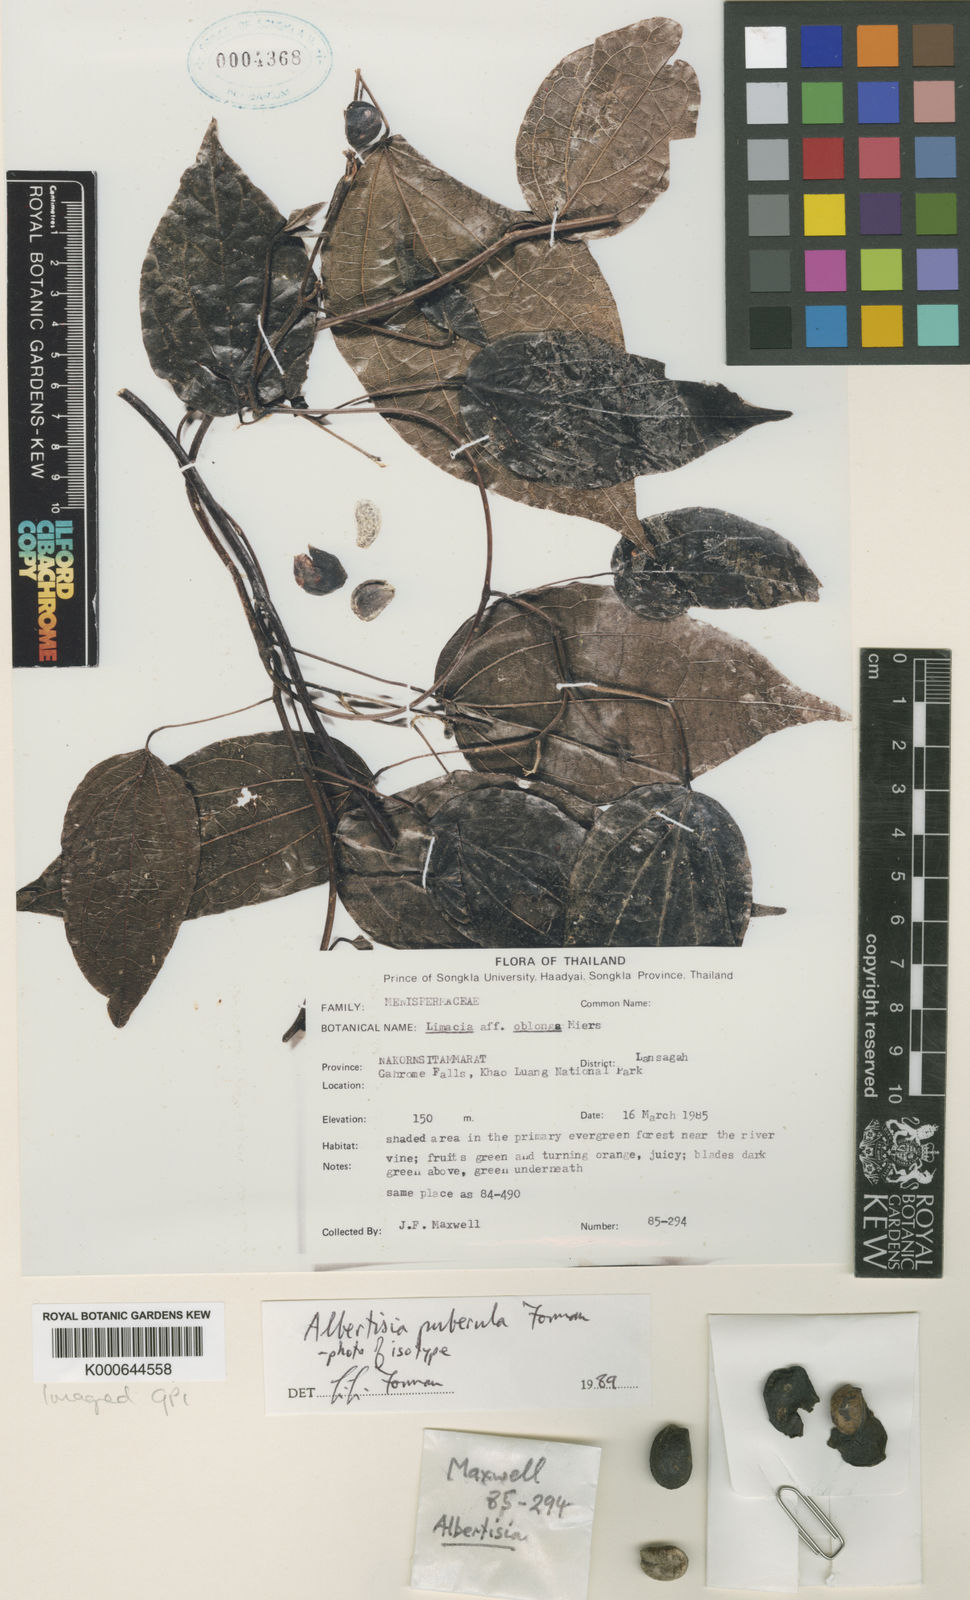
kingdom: Plantae
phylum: Tracheophyta
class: Magnoliopsida
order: Ranunculales
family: Menispermaceae
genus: Albertisia
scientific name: Albertisia puberula
